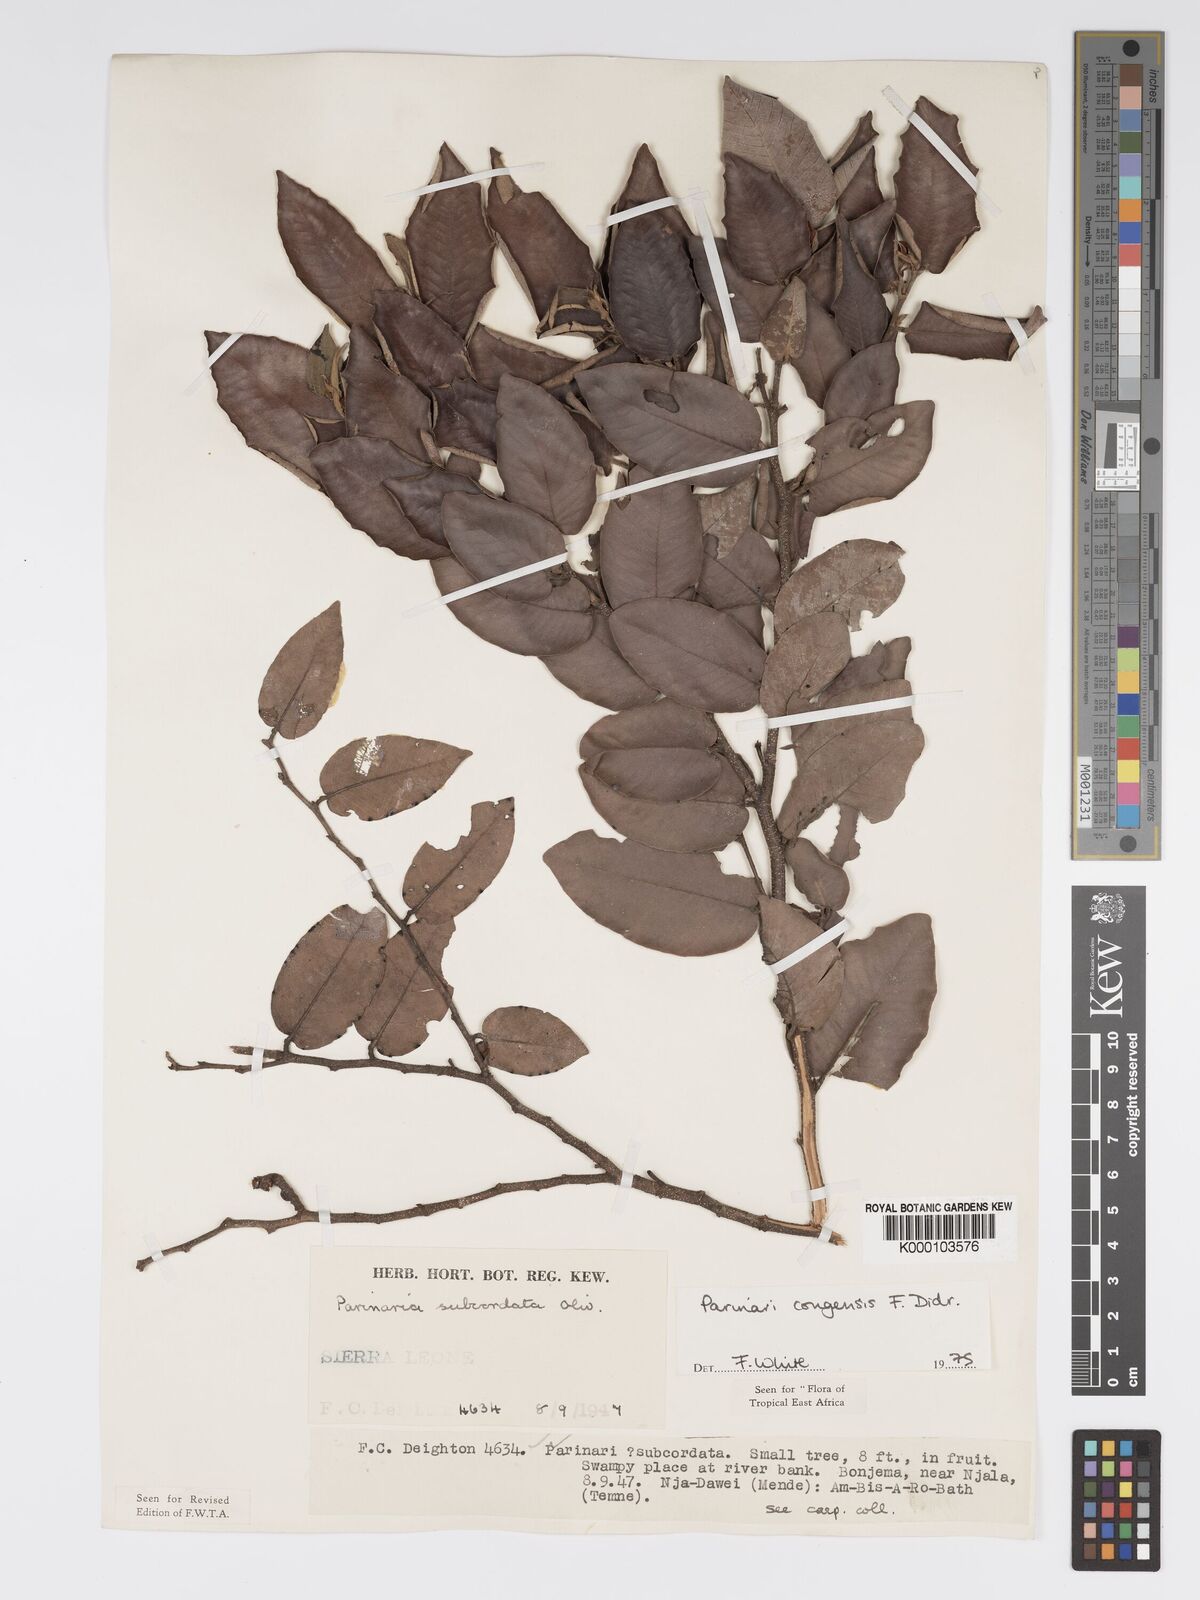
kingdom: Plantae
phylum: Tracheophyta
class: Magnoliopsida
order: Malpighiales
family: Chrysobalanaceae
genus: Parinari
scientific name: Parinari congensis
